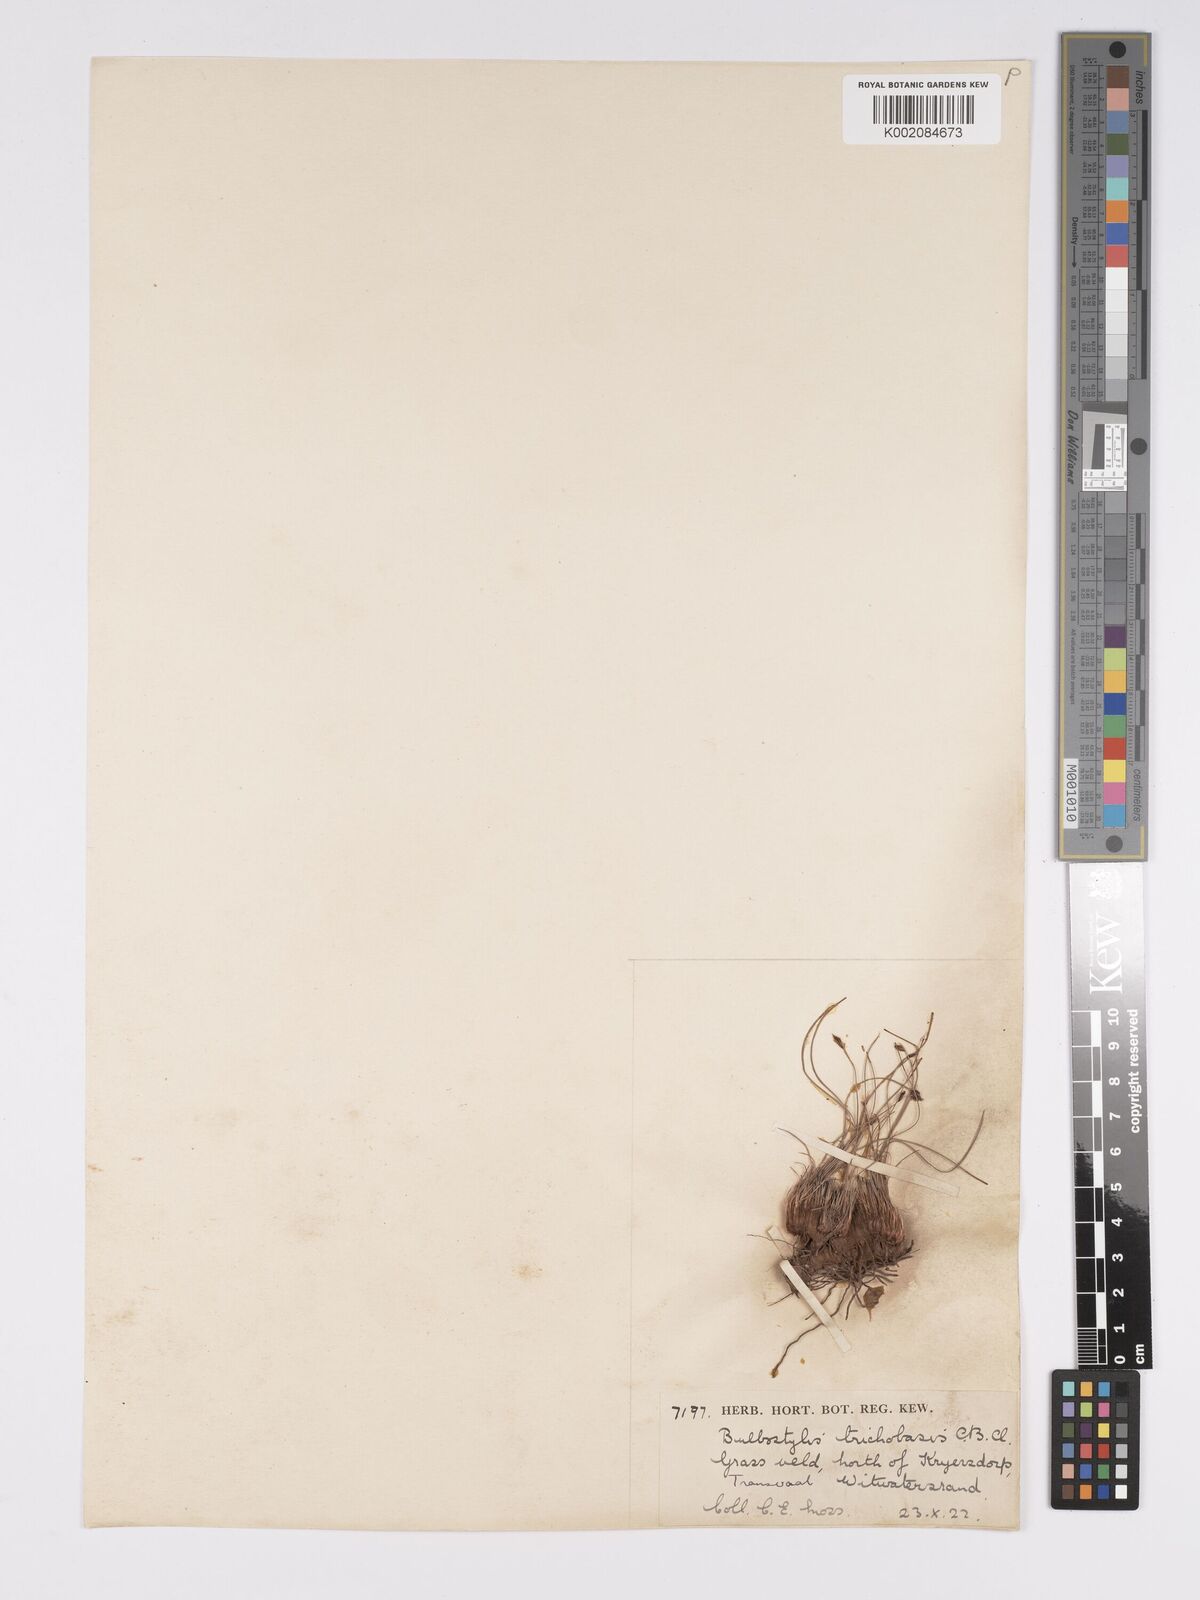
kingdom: Plantae
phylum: Tracheophyta
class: Liliopsida
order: Poales
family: Cyperaceae
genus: Bulbostylis
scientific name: Bulbostylis oritrephes
